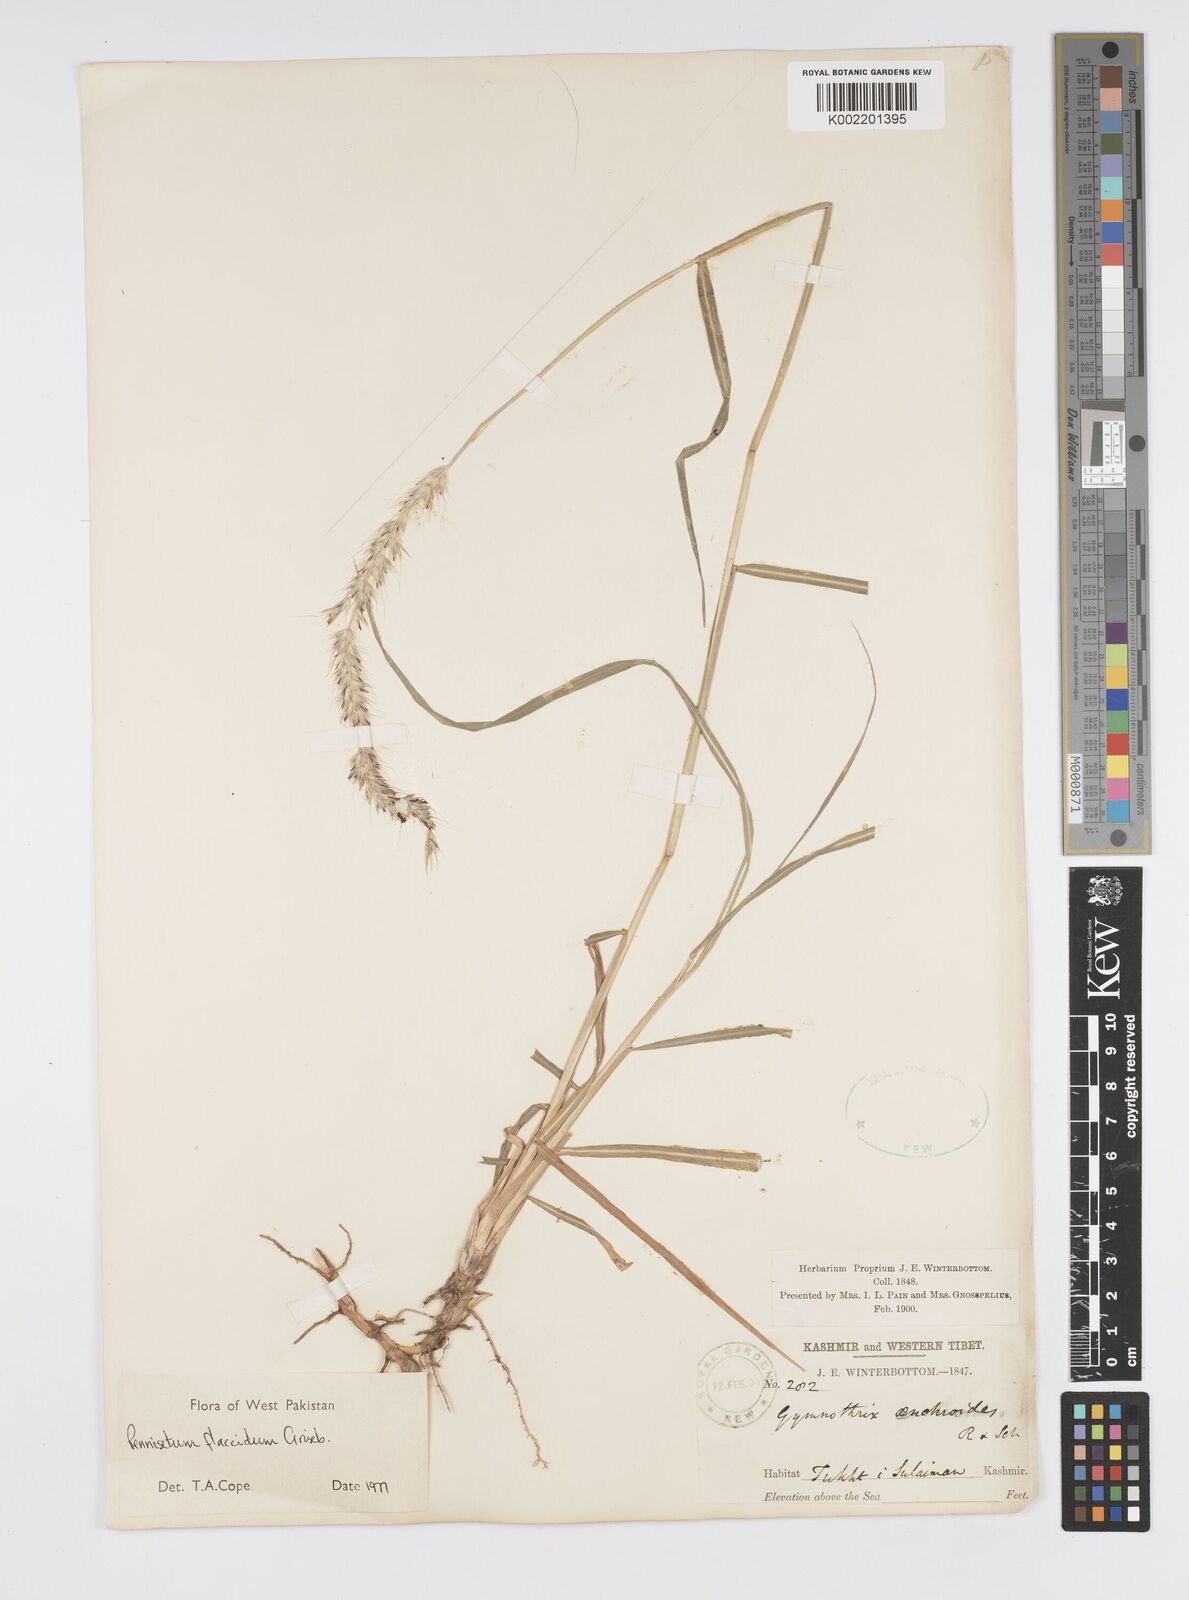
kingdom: Plantae
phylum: Tracheophyta
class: Liliopsida
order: Poales
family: Poaceae
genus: Cenchrus
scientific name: Cenchrus flaccidus
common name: Flaccid grass
